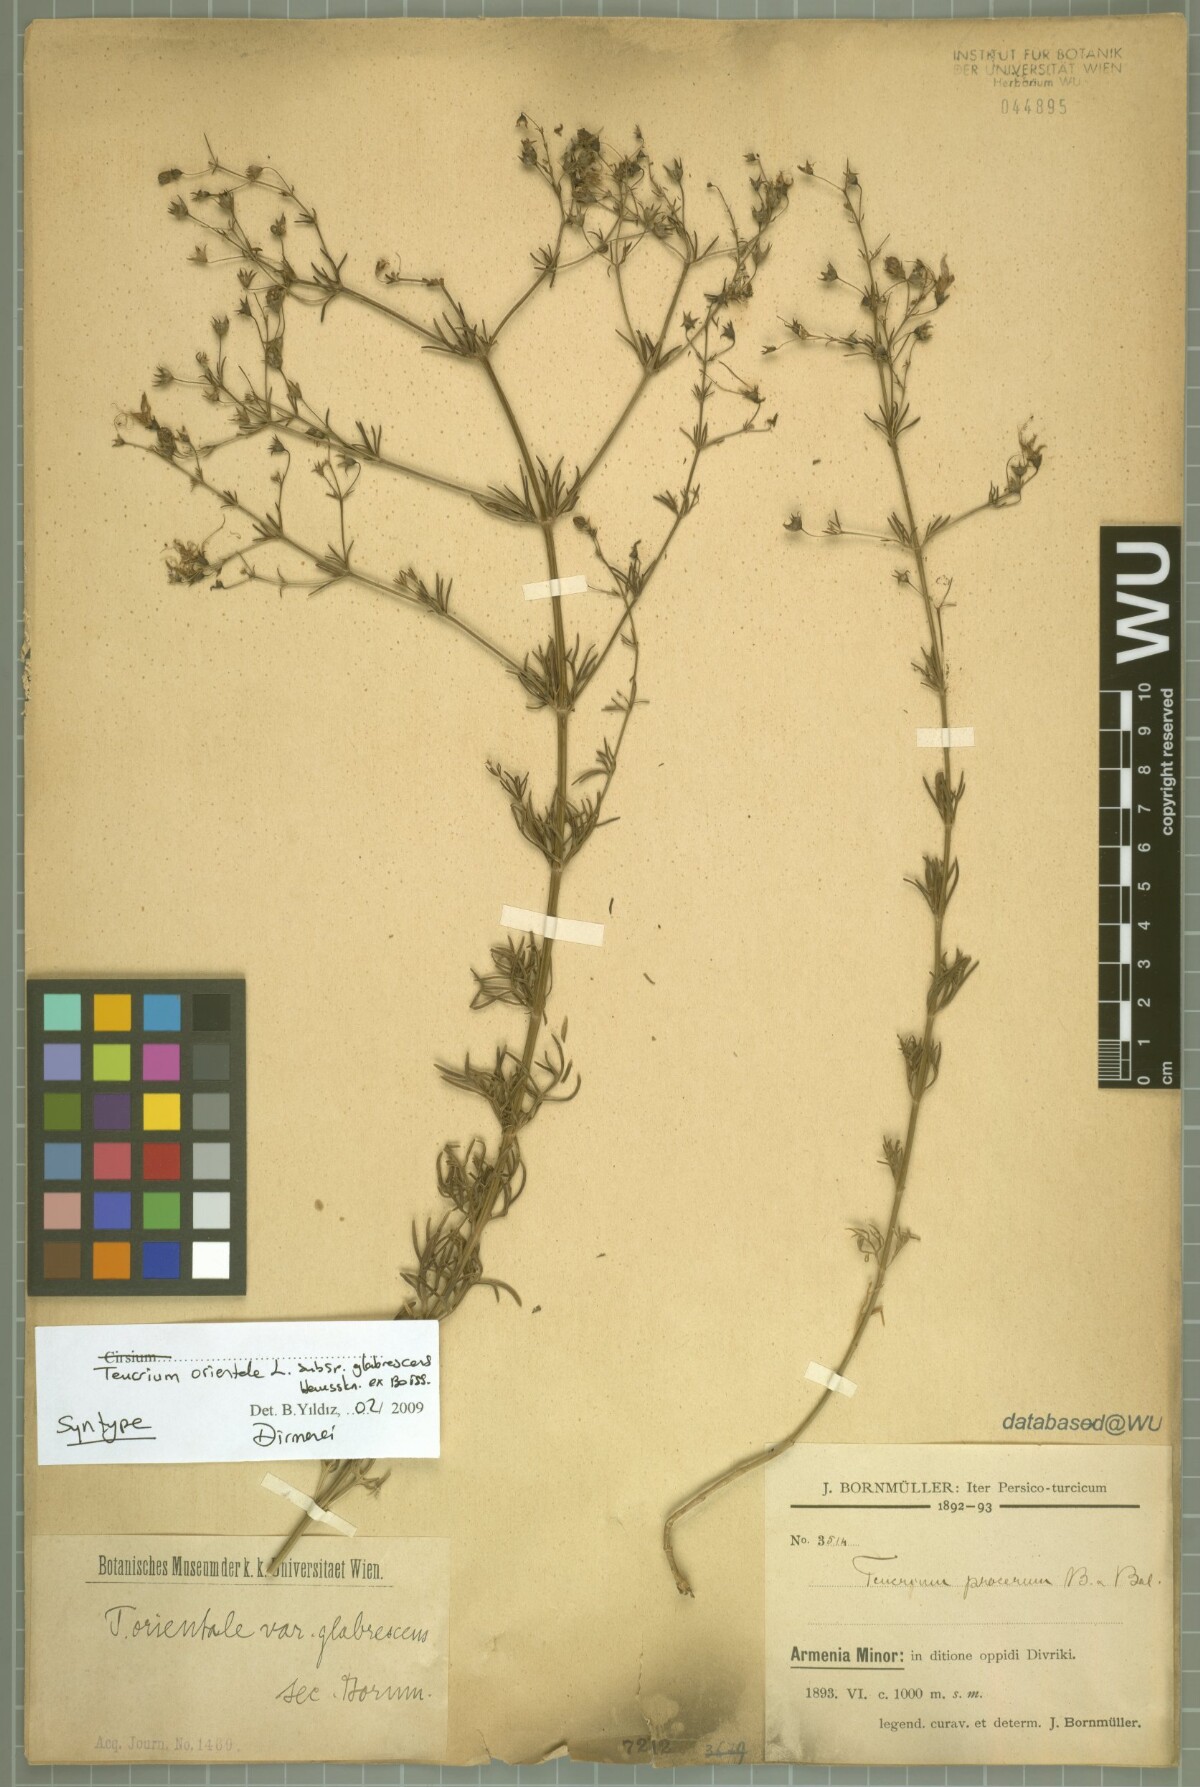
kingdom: Plantae
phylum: Tracheophyta
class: Magnoliopsida
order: Lamiales
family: Lamiaceae
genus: Teucrium
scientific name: Teucrium orientale
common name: Oriental germander
